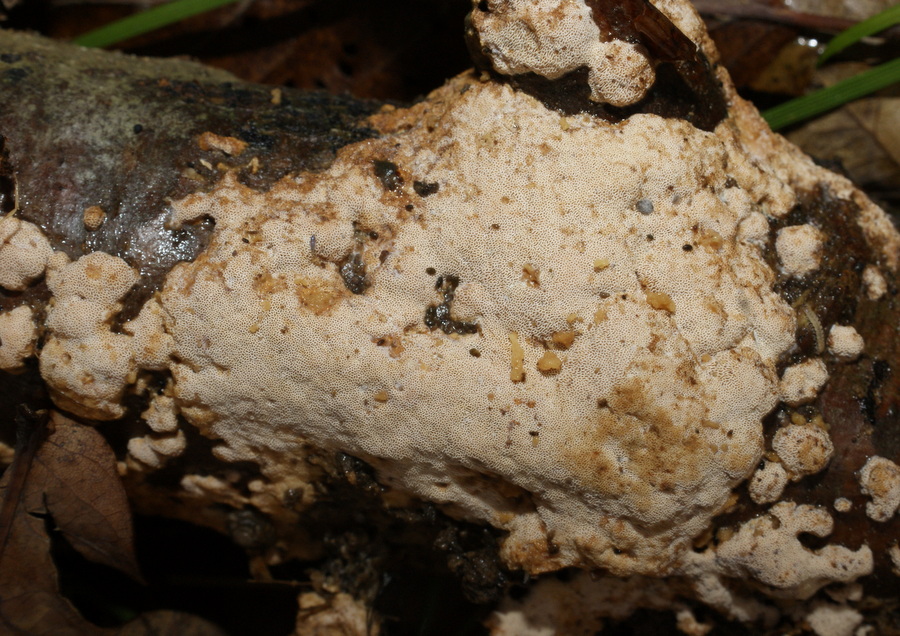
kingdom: Fungi
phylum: Basidiomycota
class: Agaricomycetes
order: Hymenochaetales
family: Schizoporaceae
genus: Xylodon
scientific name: Xylodon flaviporus
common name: gulporet tandsvamp
